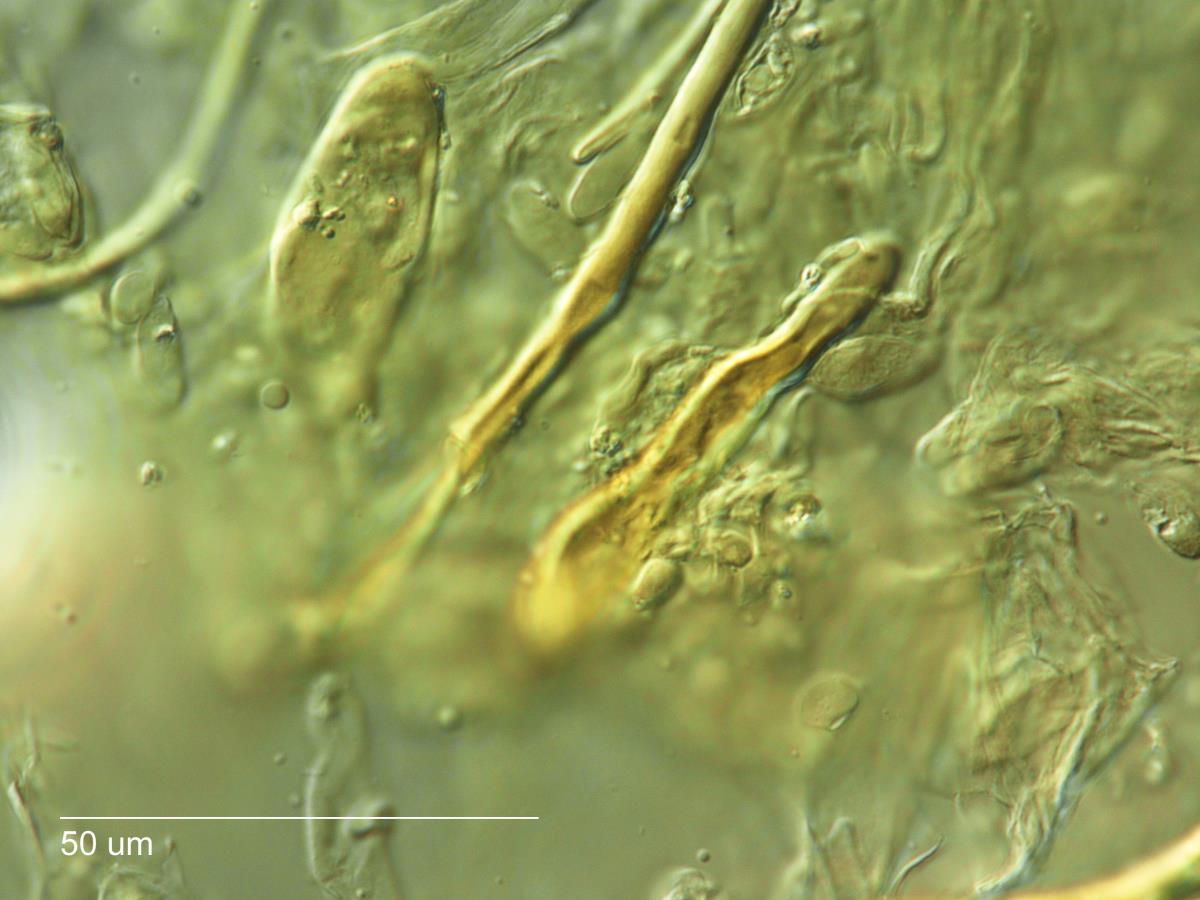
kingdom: Fungi
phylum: Basidiomycota
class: Agaricomycetes
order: Agaricales
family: Omphalotaceae
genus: Marasmiellus
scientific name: Marasmiellus omphaloides
